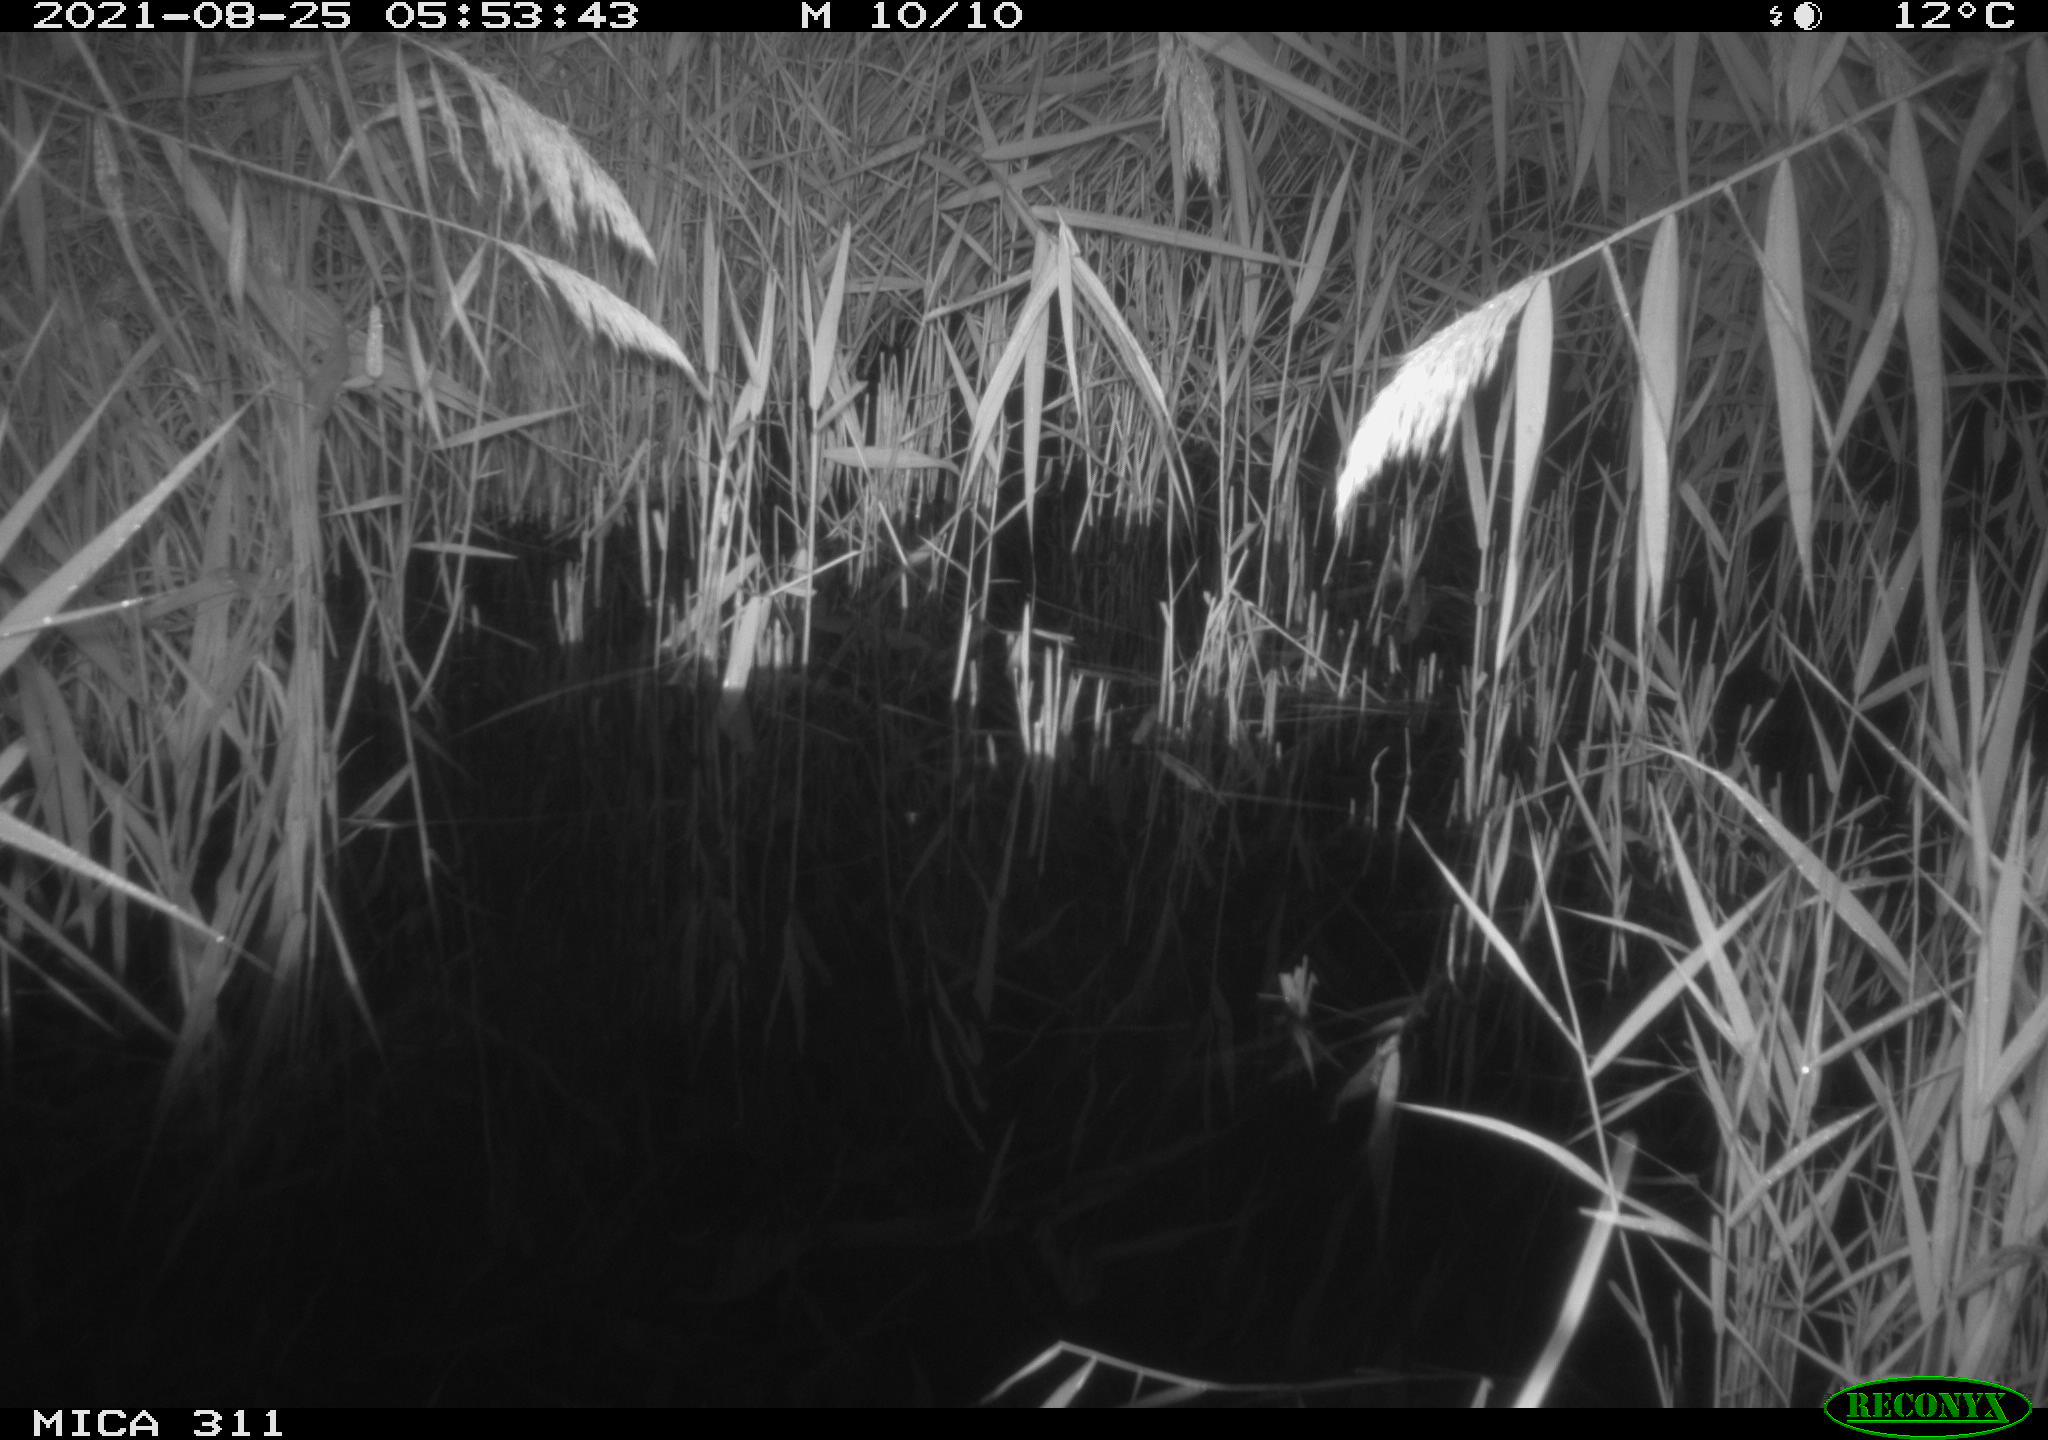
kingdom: Animalia
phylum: Chordata
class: Mammalia
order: Rodentia
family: Muridae
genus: Rattus
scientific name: Rattus norvegicus
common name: Brown rat
